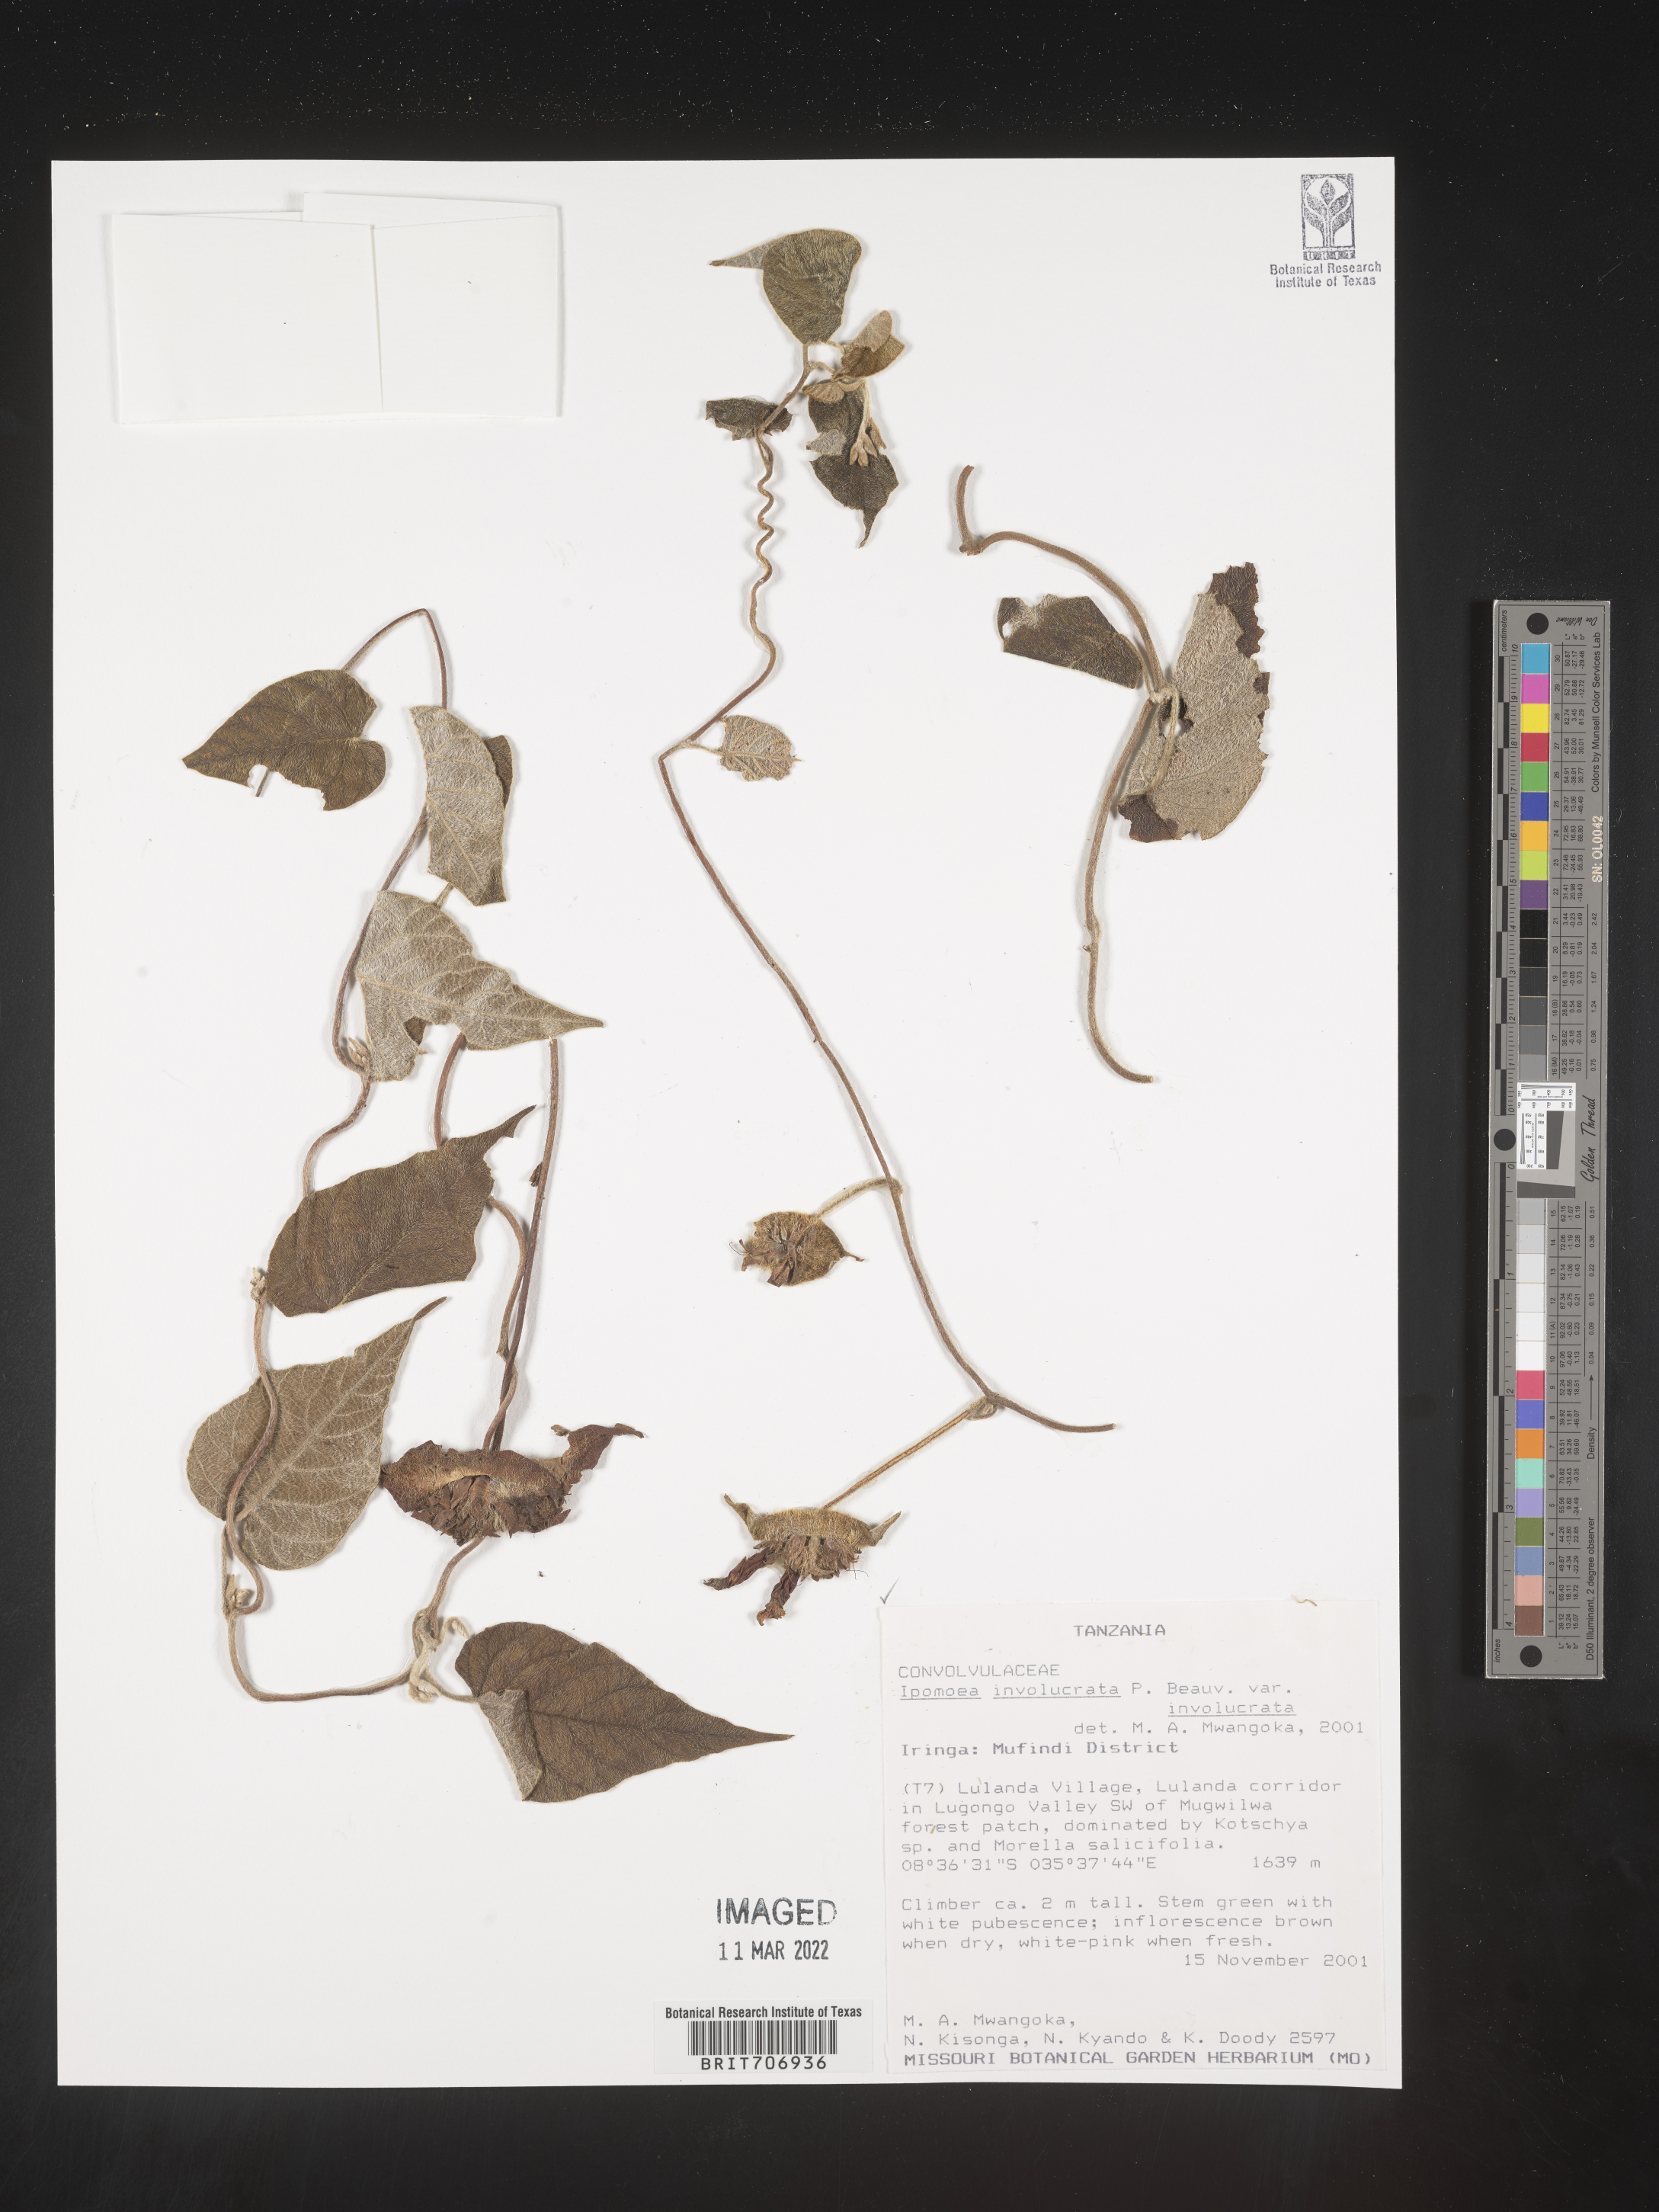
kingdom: Plantae
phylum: Tracheophyta
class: Magnoliopsida
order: Solanales
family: Convolvulaceae
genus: Ipomoea
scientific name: Ipomoea
